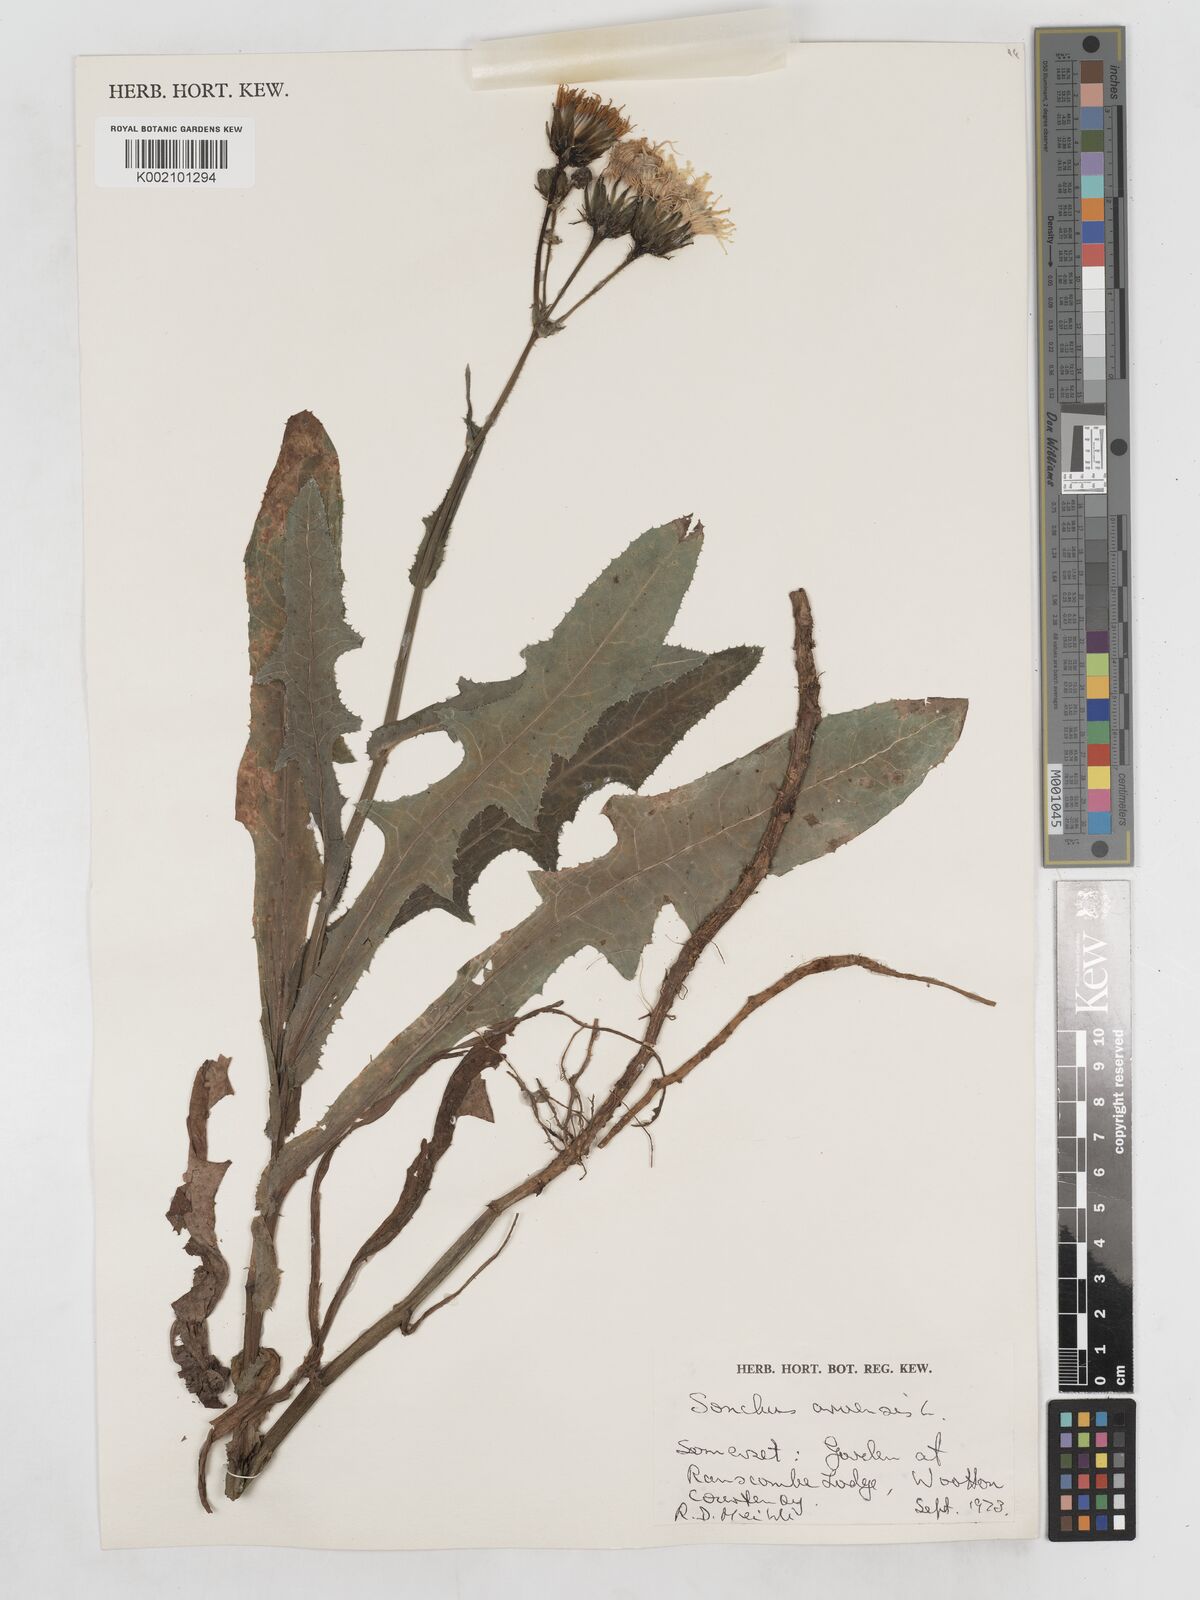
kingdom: Plantae
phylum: Tracheophyta
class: Magnoliopsida
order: Asterales
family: Asteraceae
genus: Sonchus
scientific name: Sonchus arvensis
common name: Perennial sow-thistle
